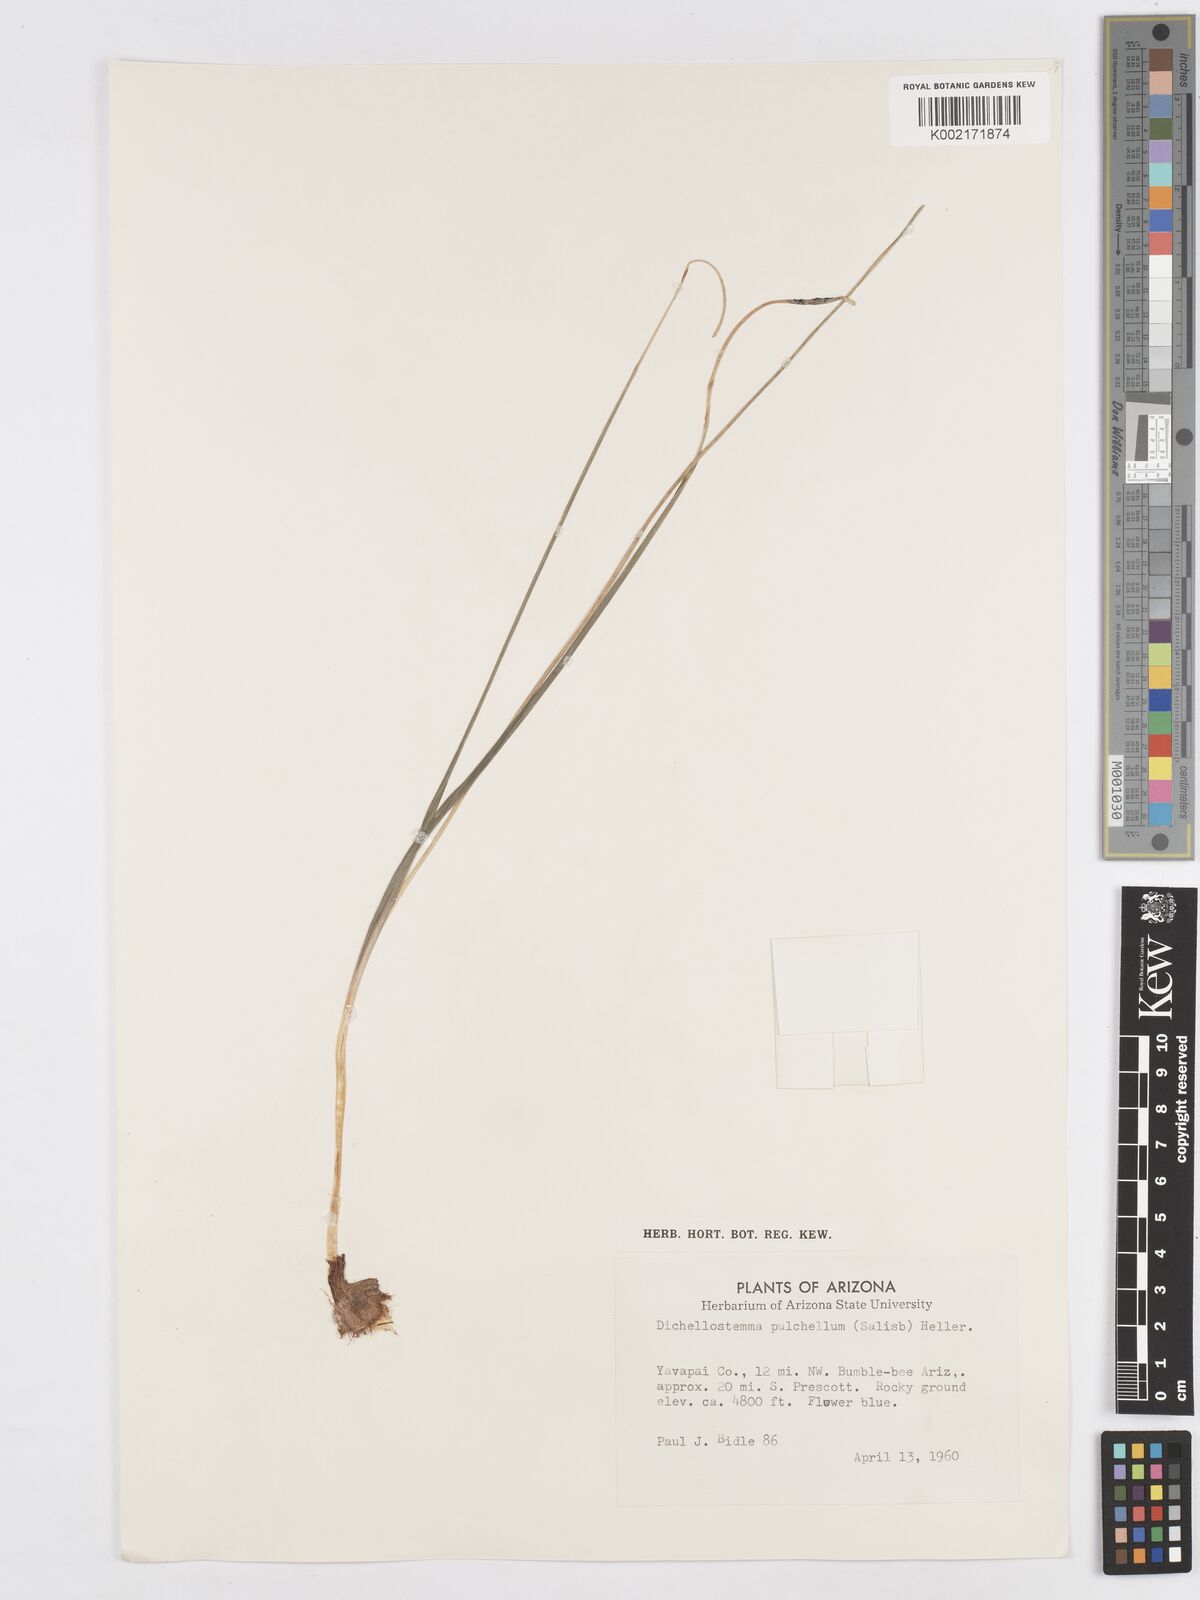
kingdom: Plantae
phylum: Tracheophyta
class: Liliopsida
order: Asparagales
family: Asparagaceae
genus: Dichelostemma
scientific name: Dichelostemma congestum
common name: Fork-tooth ookow
